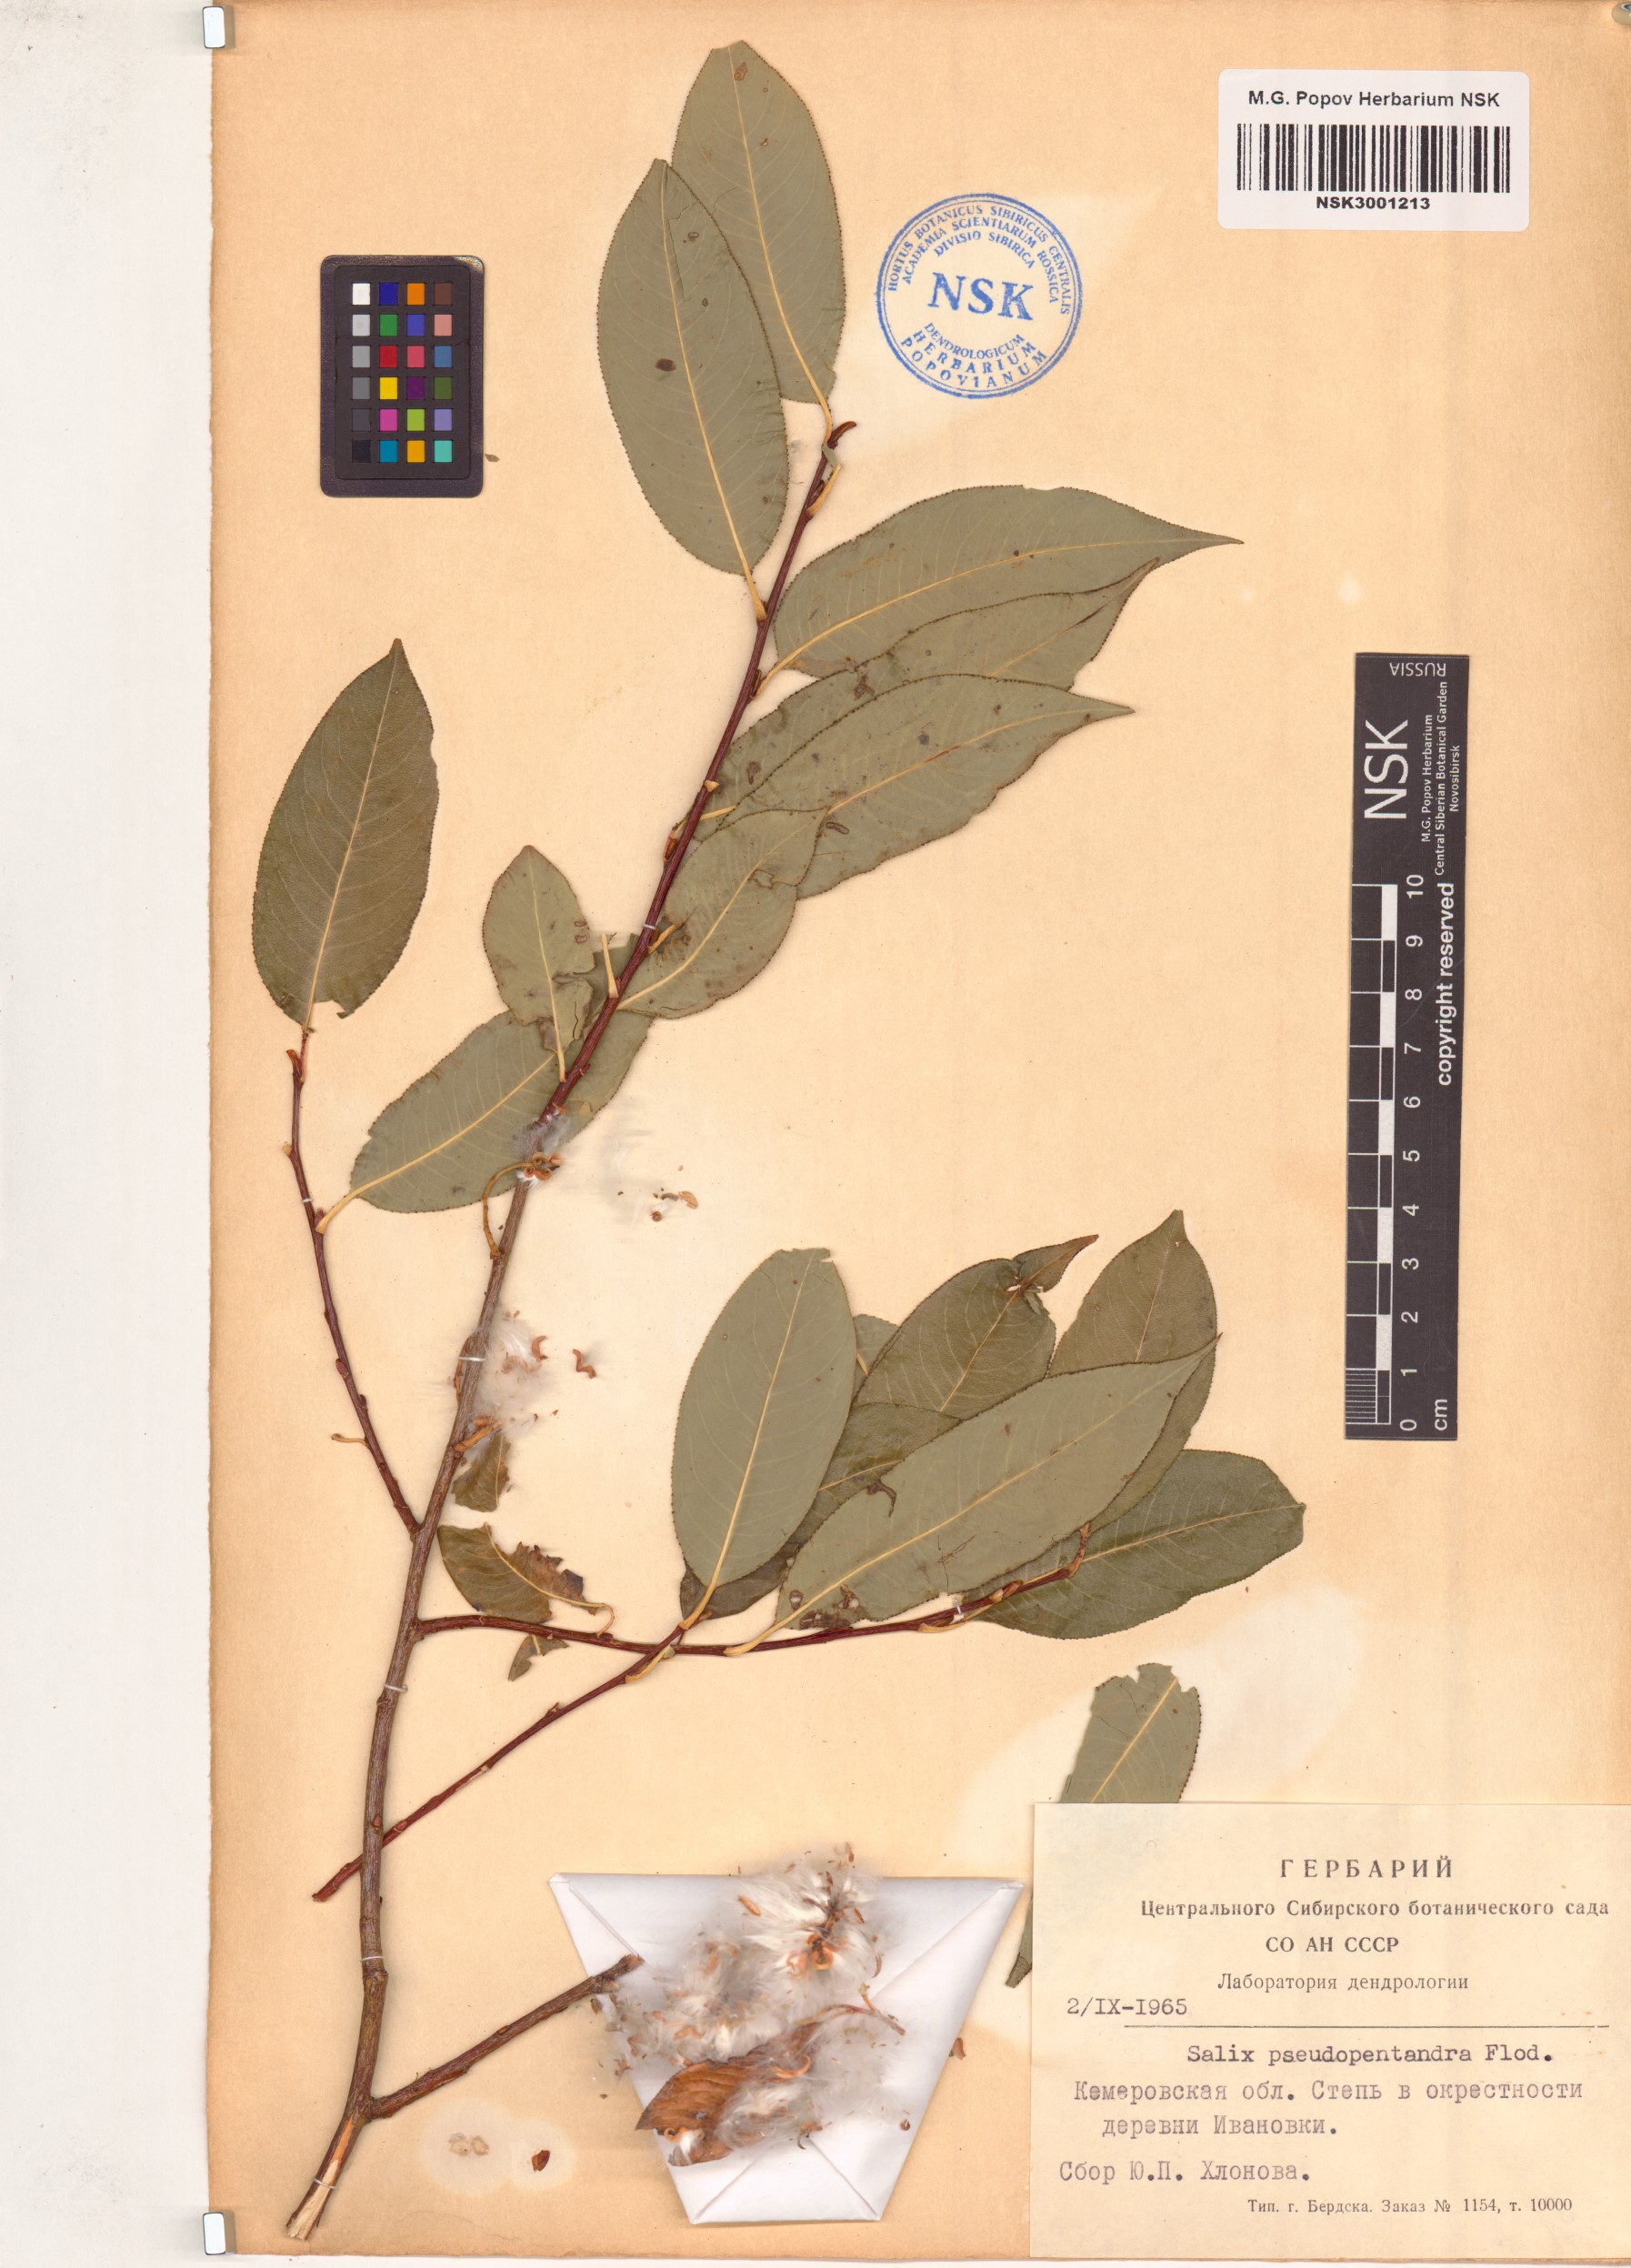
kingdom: Plantae
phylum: Tracheophyta
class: Magnoliopsida
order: Malpighiales
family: Salicaceae
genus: Salix
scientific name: Salix pentandra
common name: Bay willow
